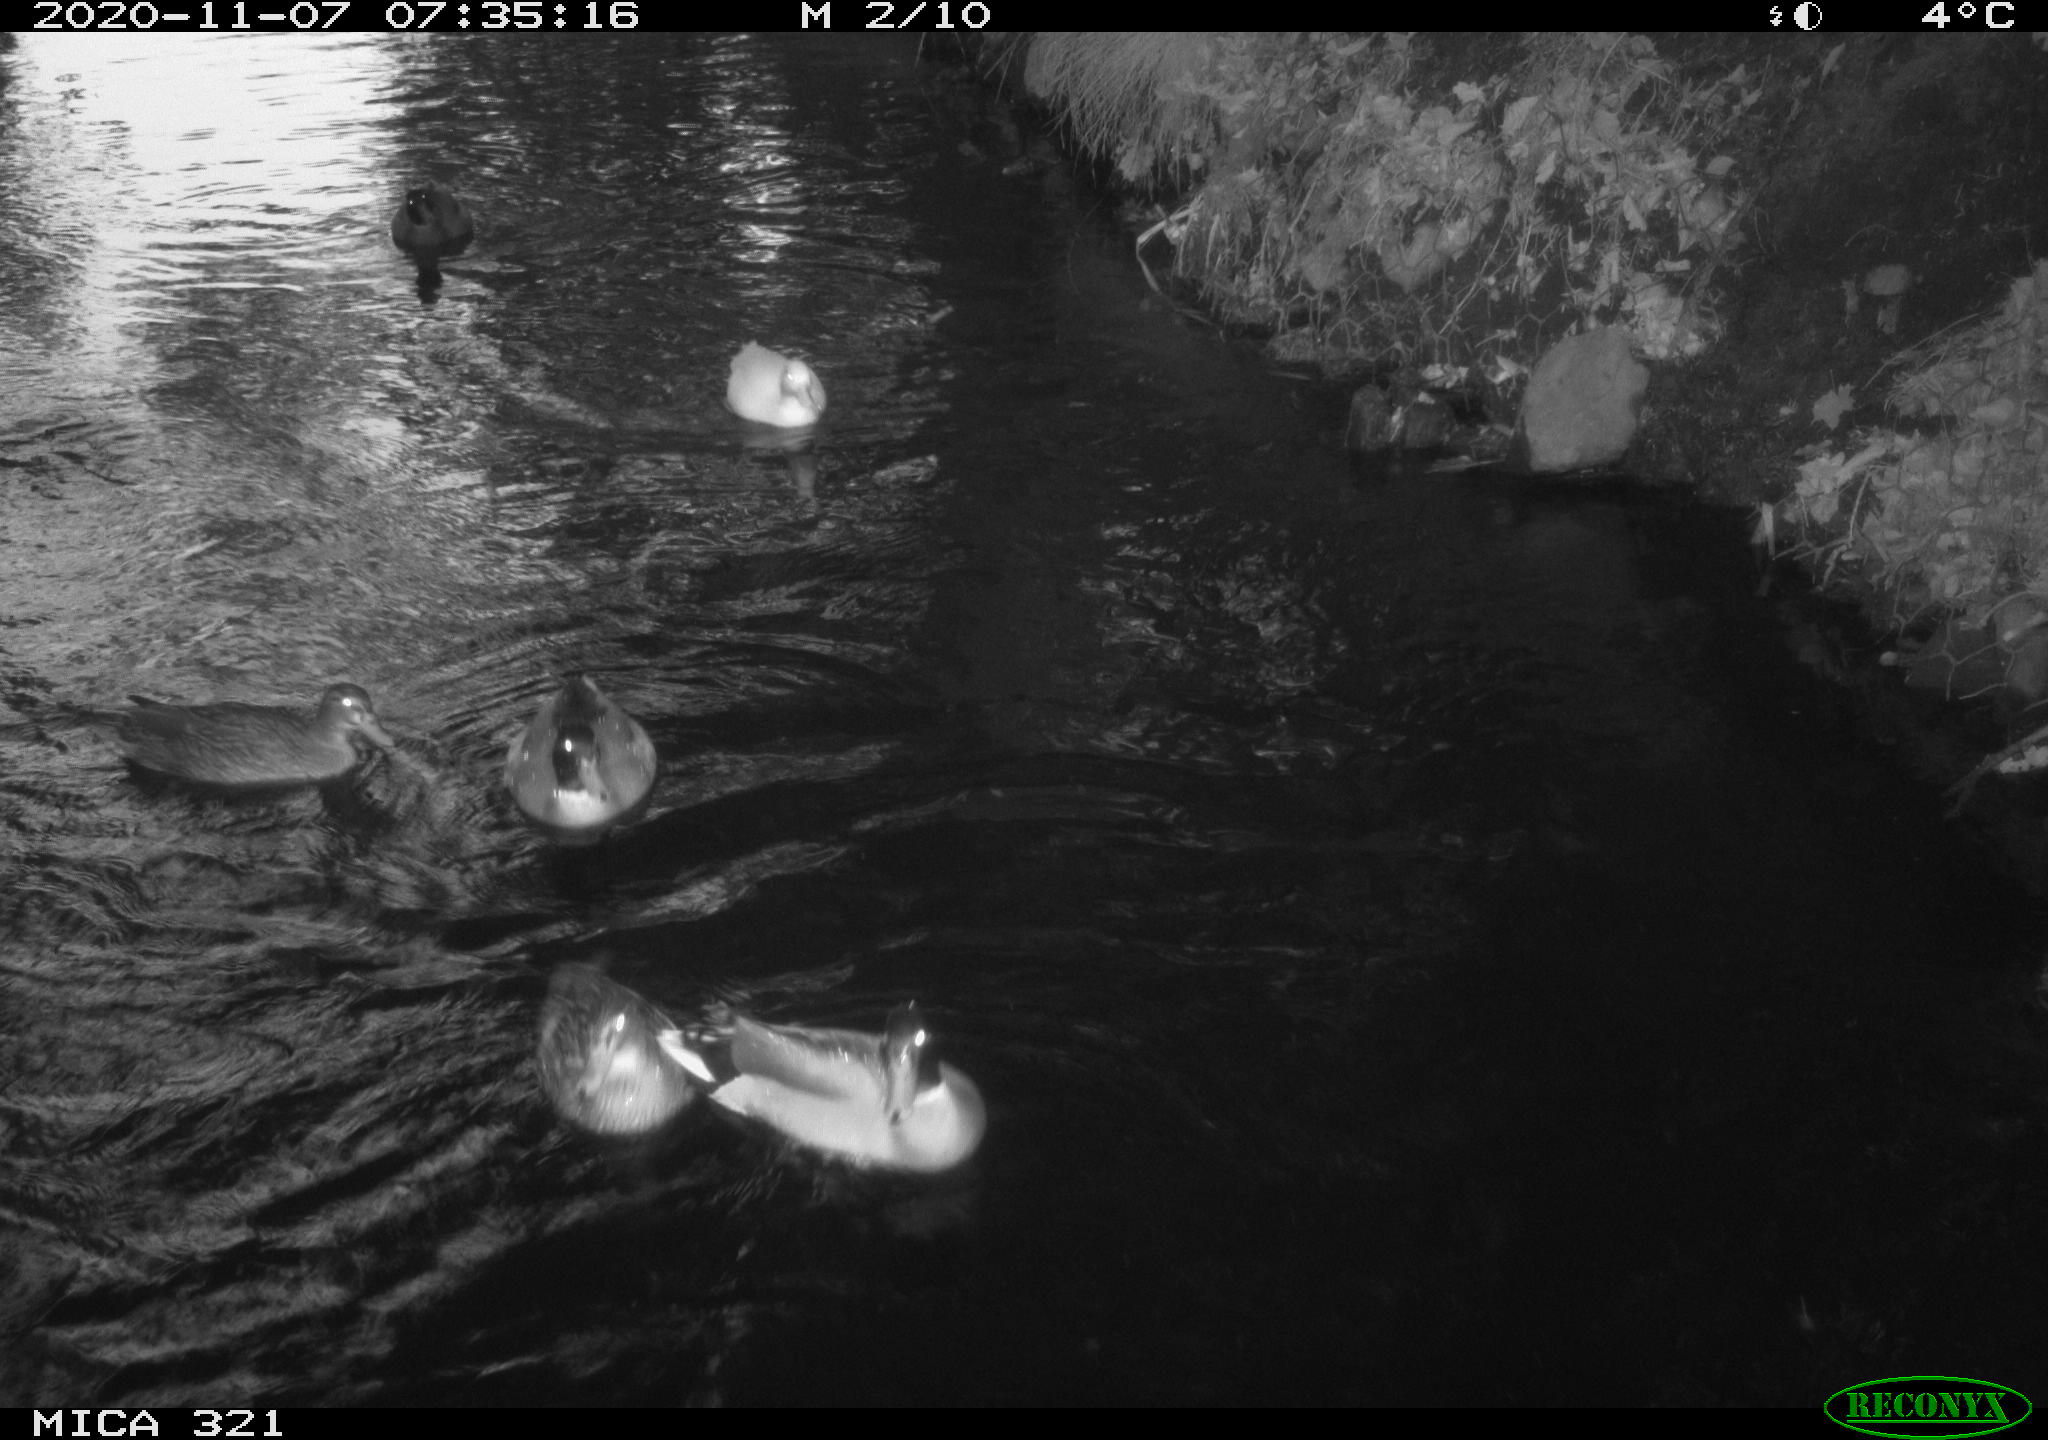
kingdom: Animalia
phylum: Chordata
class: Aves
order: Anseriformes
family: Anatidae
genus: Anas
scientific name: Anas platyrhynchos
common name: Mallard
